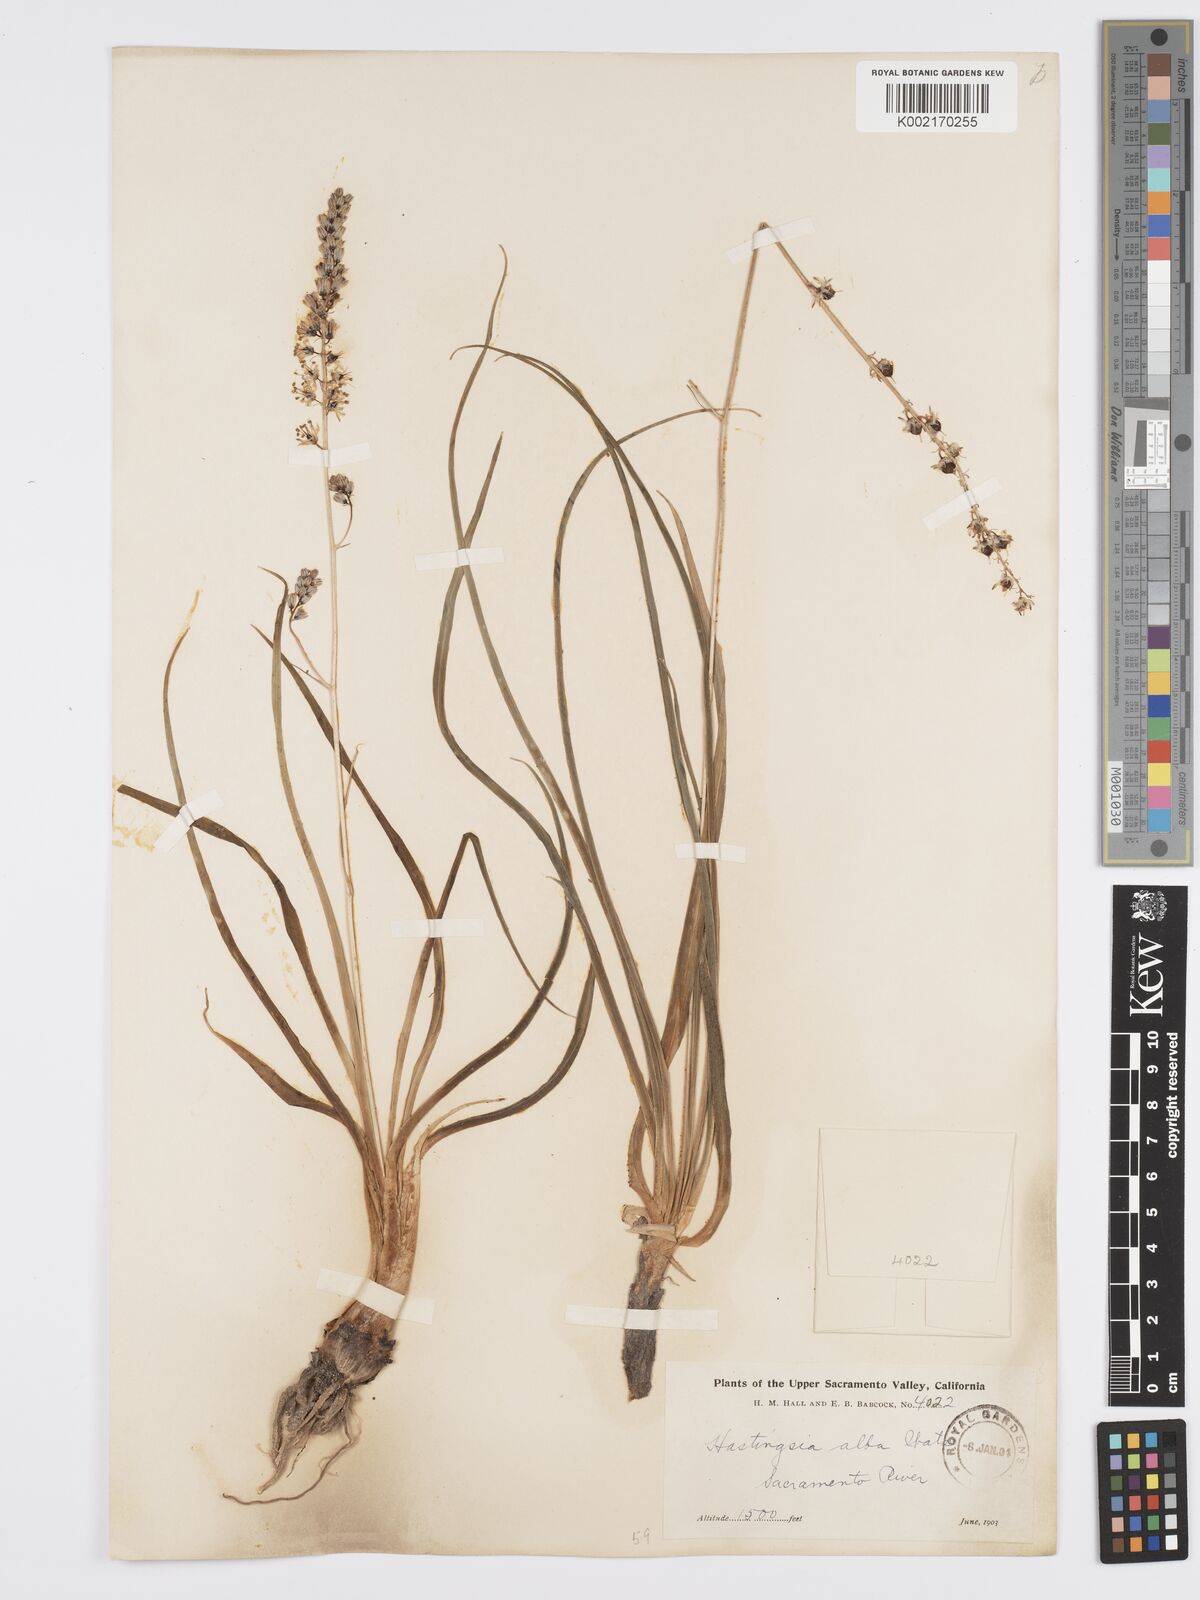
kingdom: Plantae
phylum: Tracheophyta
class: Liliopsida
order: Asparagales
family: Asparagaceae
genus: Hastingsia
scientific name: Hastingsia alba
